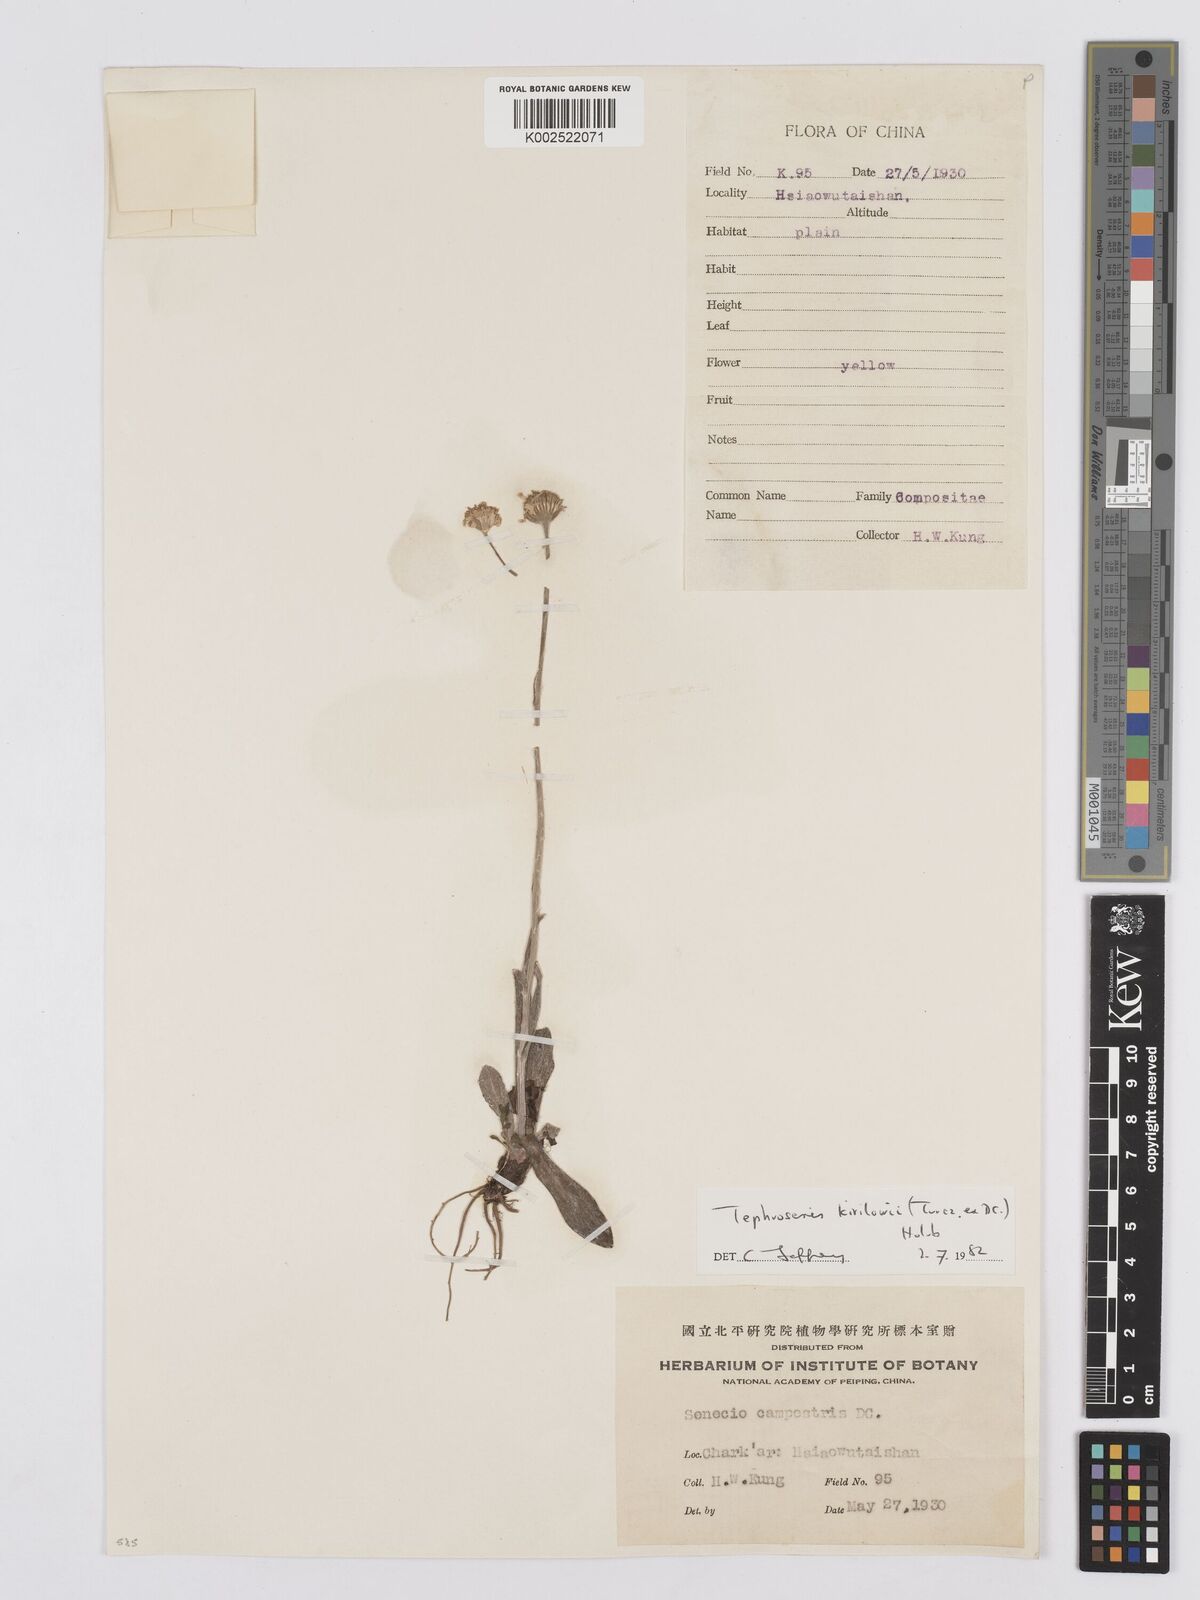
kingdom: Plantae
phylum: Tracheophyta
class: Magnoliopsida
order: Asterales
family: Asteraceae
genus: Tephroseris
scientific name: Tephroseris kirilowii
